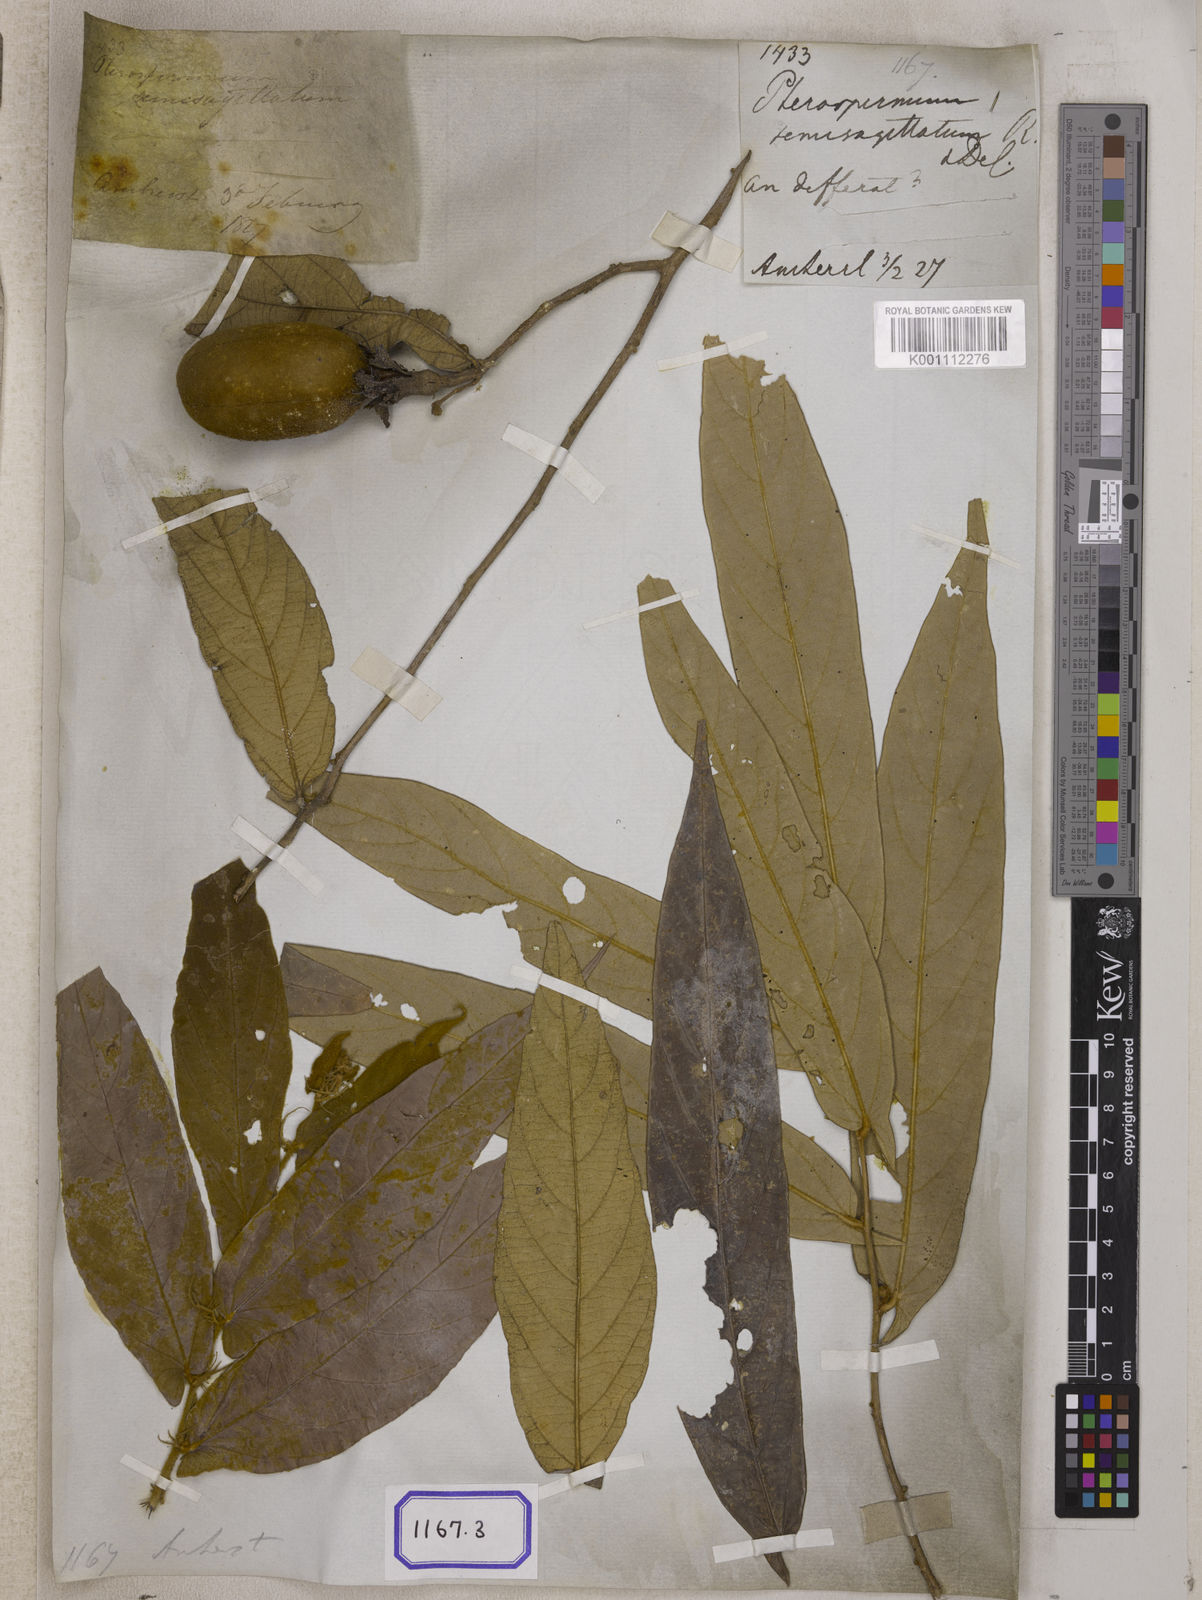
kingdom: Plantae
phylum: Tracheophyta
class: Magnoliopsida
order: Malvales
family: Malvaceae
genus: Pterospermum
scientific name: Pterospermum semisagittatum
